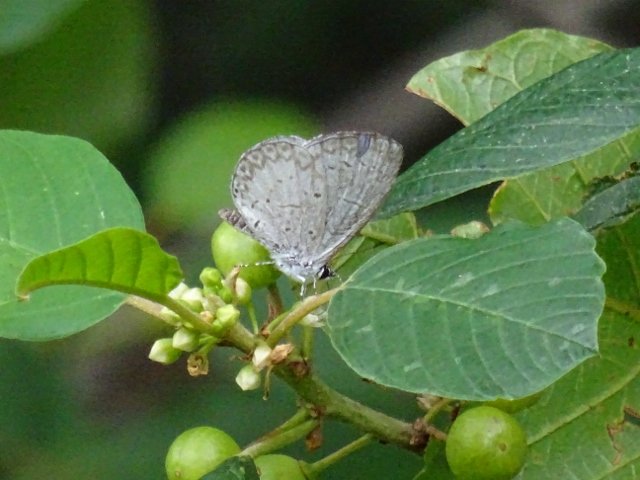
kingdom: Animalia
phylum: Arthropoda
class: Insecta
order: Lepidoptera
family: Lycaenidae
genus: Celastrina
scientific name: Celastrina
